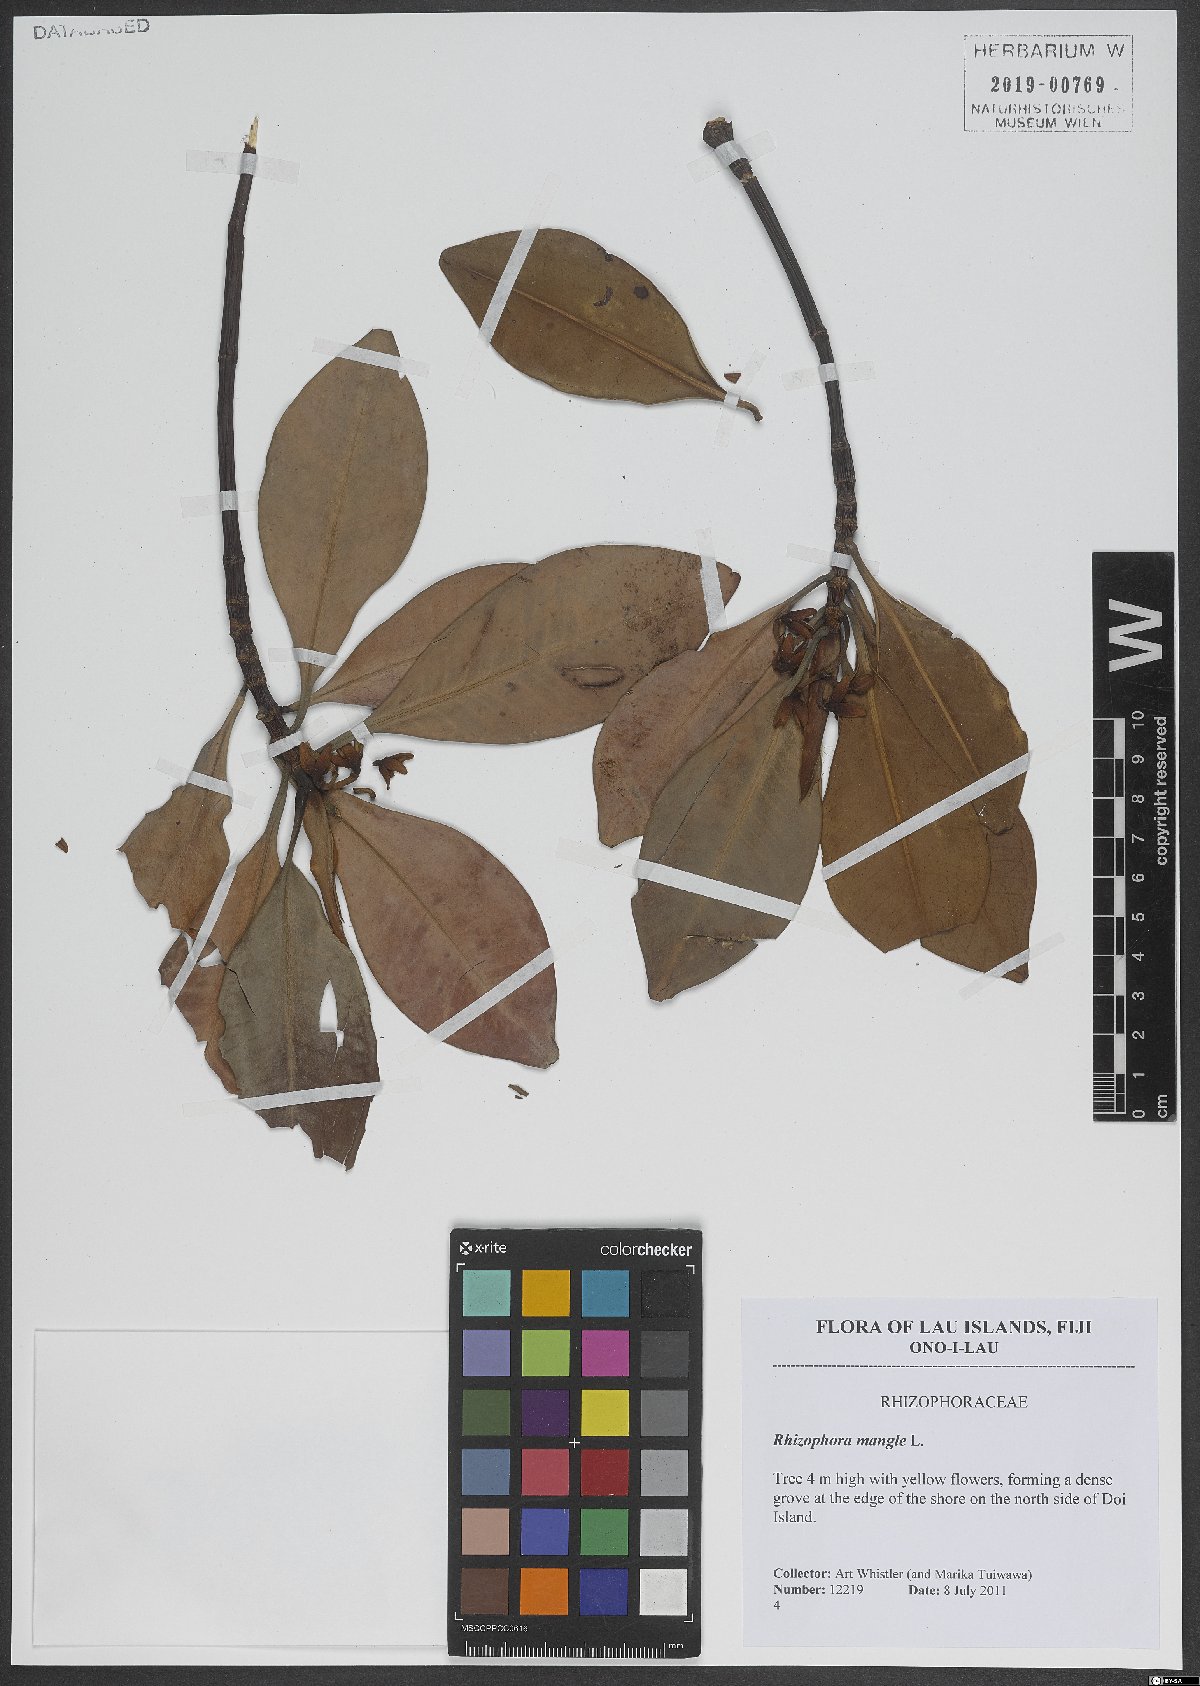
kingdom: Plantae
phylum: Tracheophyta
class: Magnoliopsida
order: Malpighiales
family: Rhizophoraceae
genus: Rhizophora
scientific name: Rhizophora mangle
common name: Red mangrove
